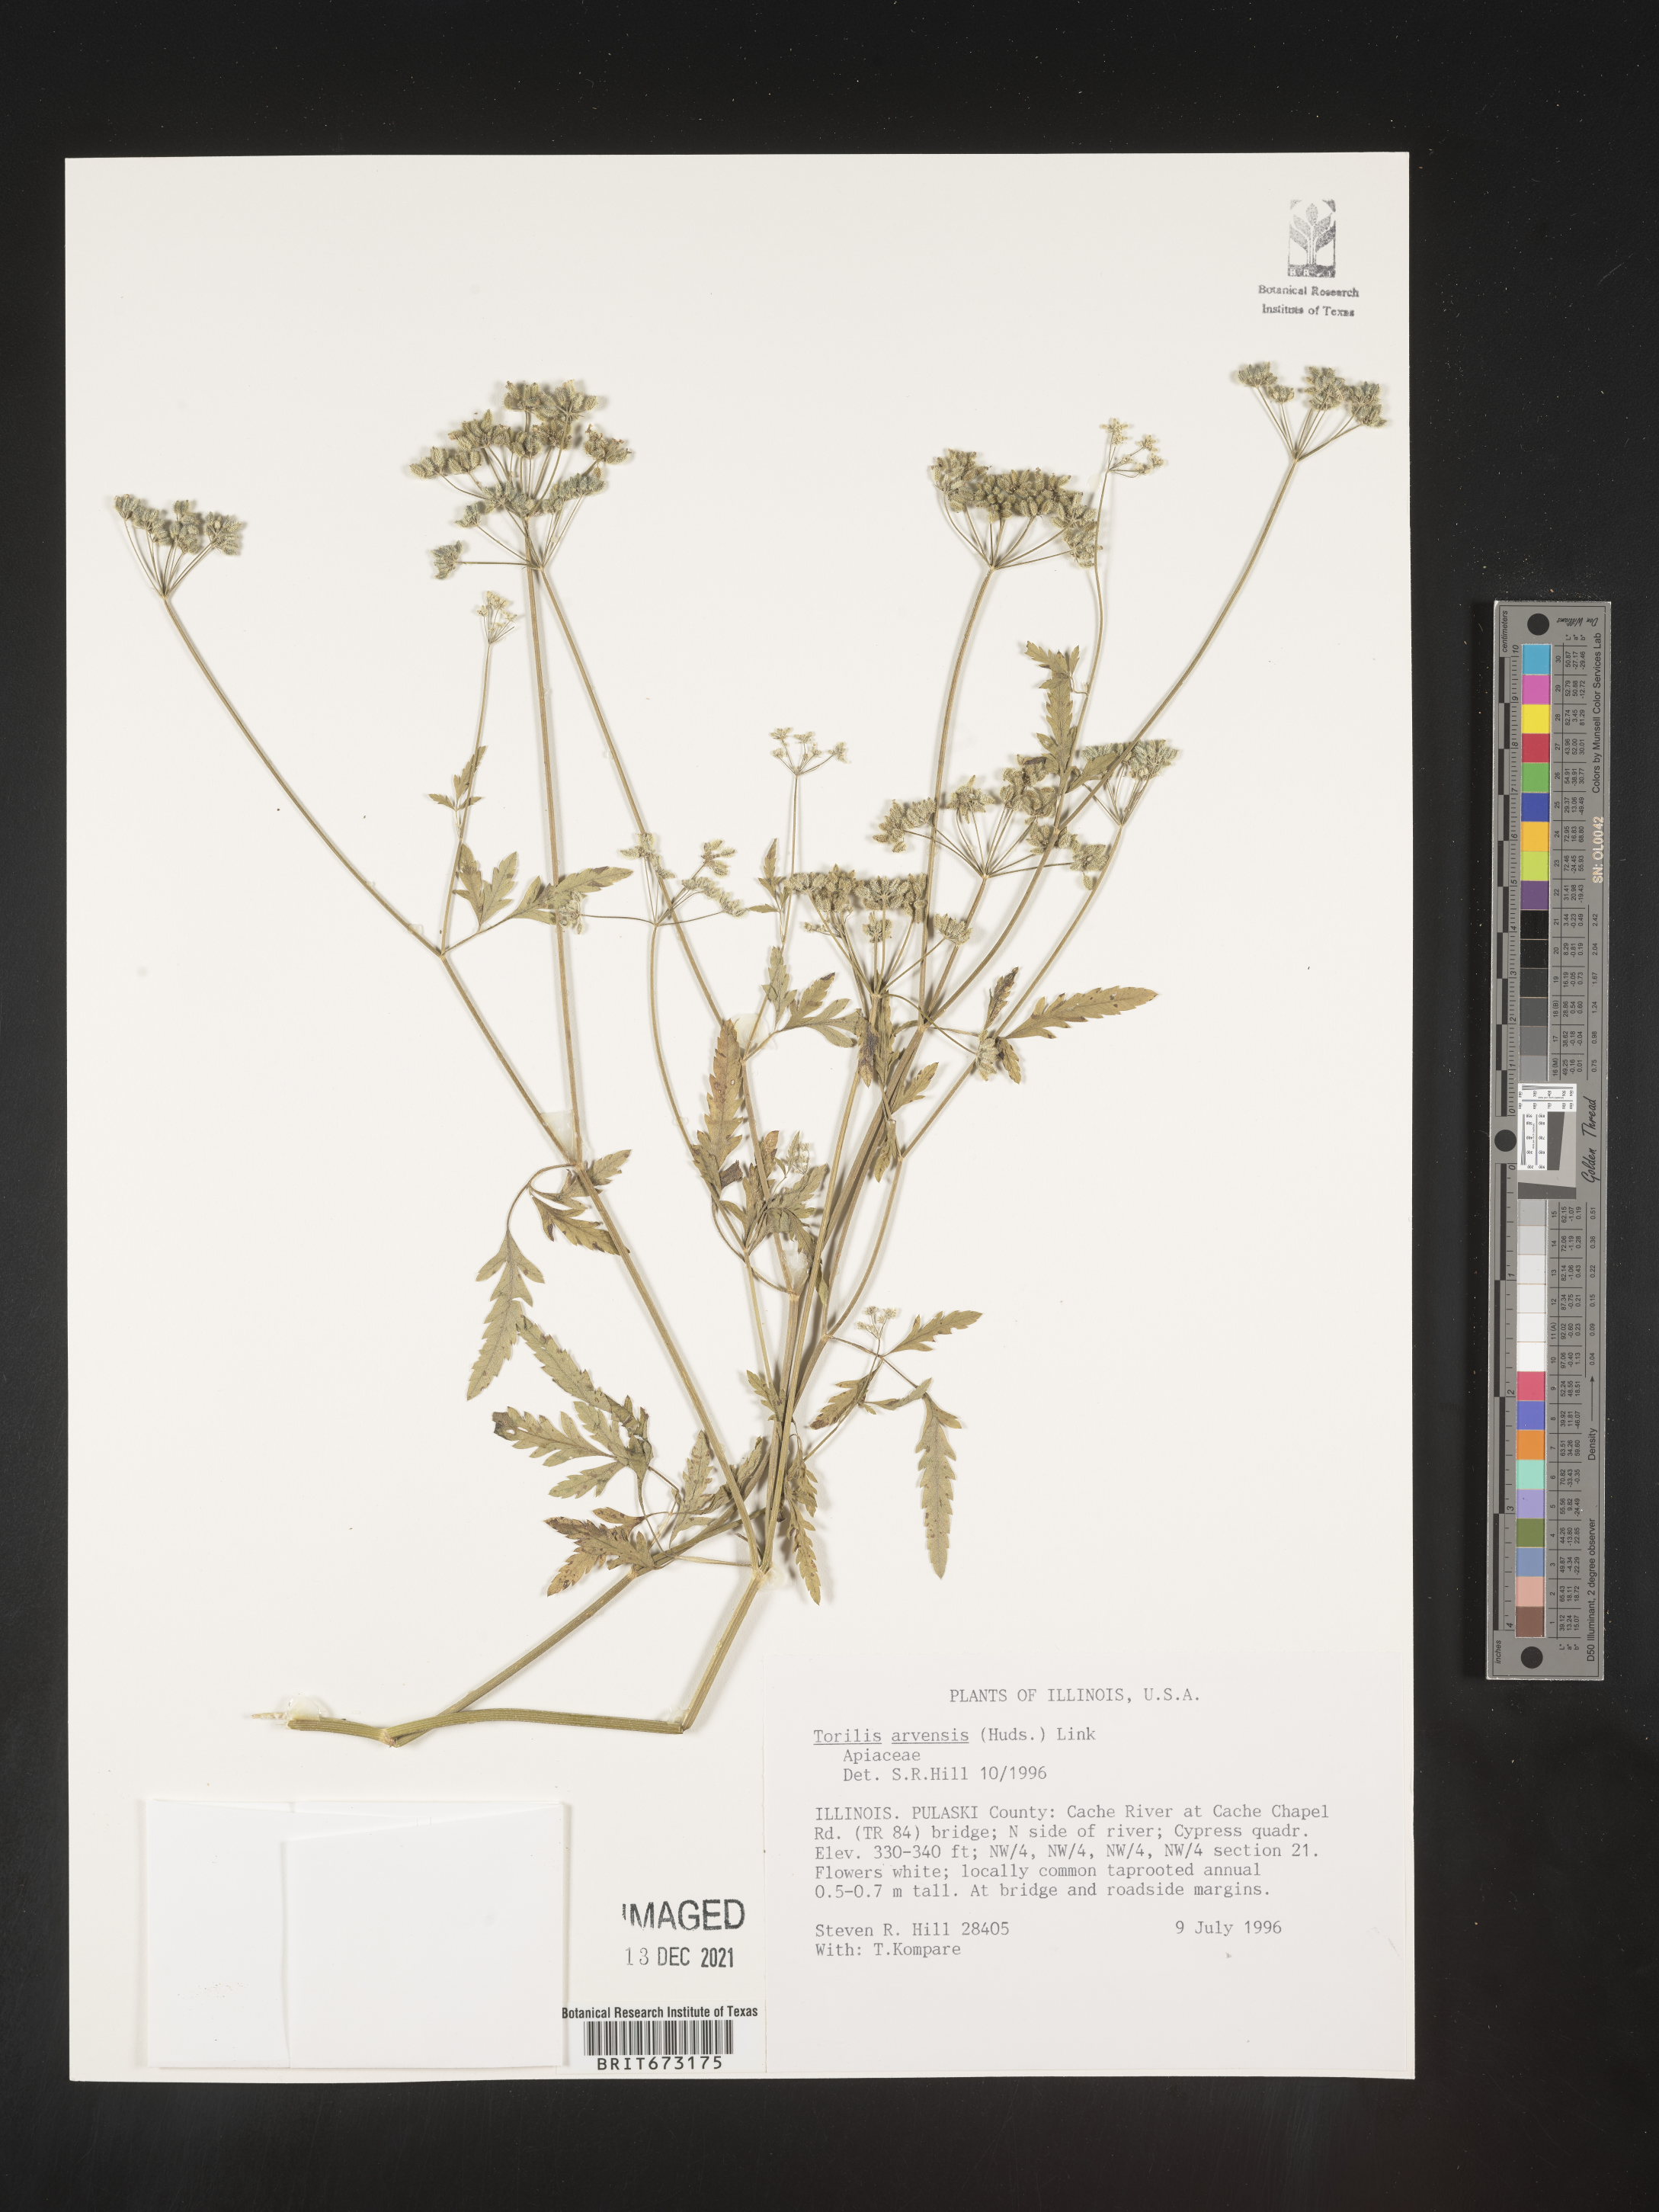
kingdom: Plantae
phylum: Tracheophyta
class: Magnoliopsida
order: Apiales
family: Apiaceae
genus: Torilis
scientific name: Torilis arvensis
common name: Spreading hedge-parsley
